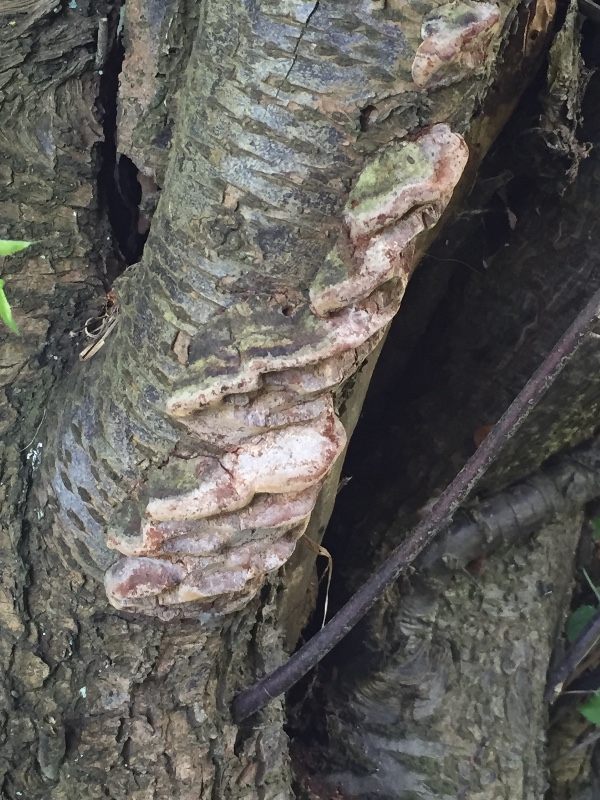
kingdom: Fungi
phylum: Basidiomycota
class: Agaricomycetes
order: Hymenochaetales
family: Hymenochaetaceae
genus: Phellinus
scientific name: Phellinus pomaceus
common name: blomme-ildporesvamp
